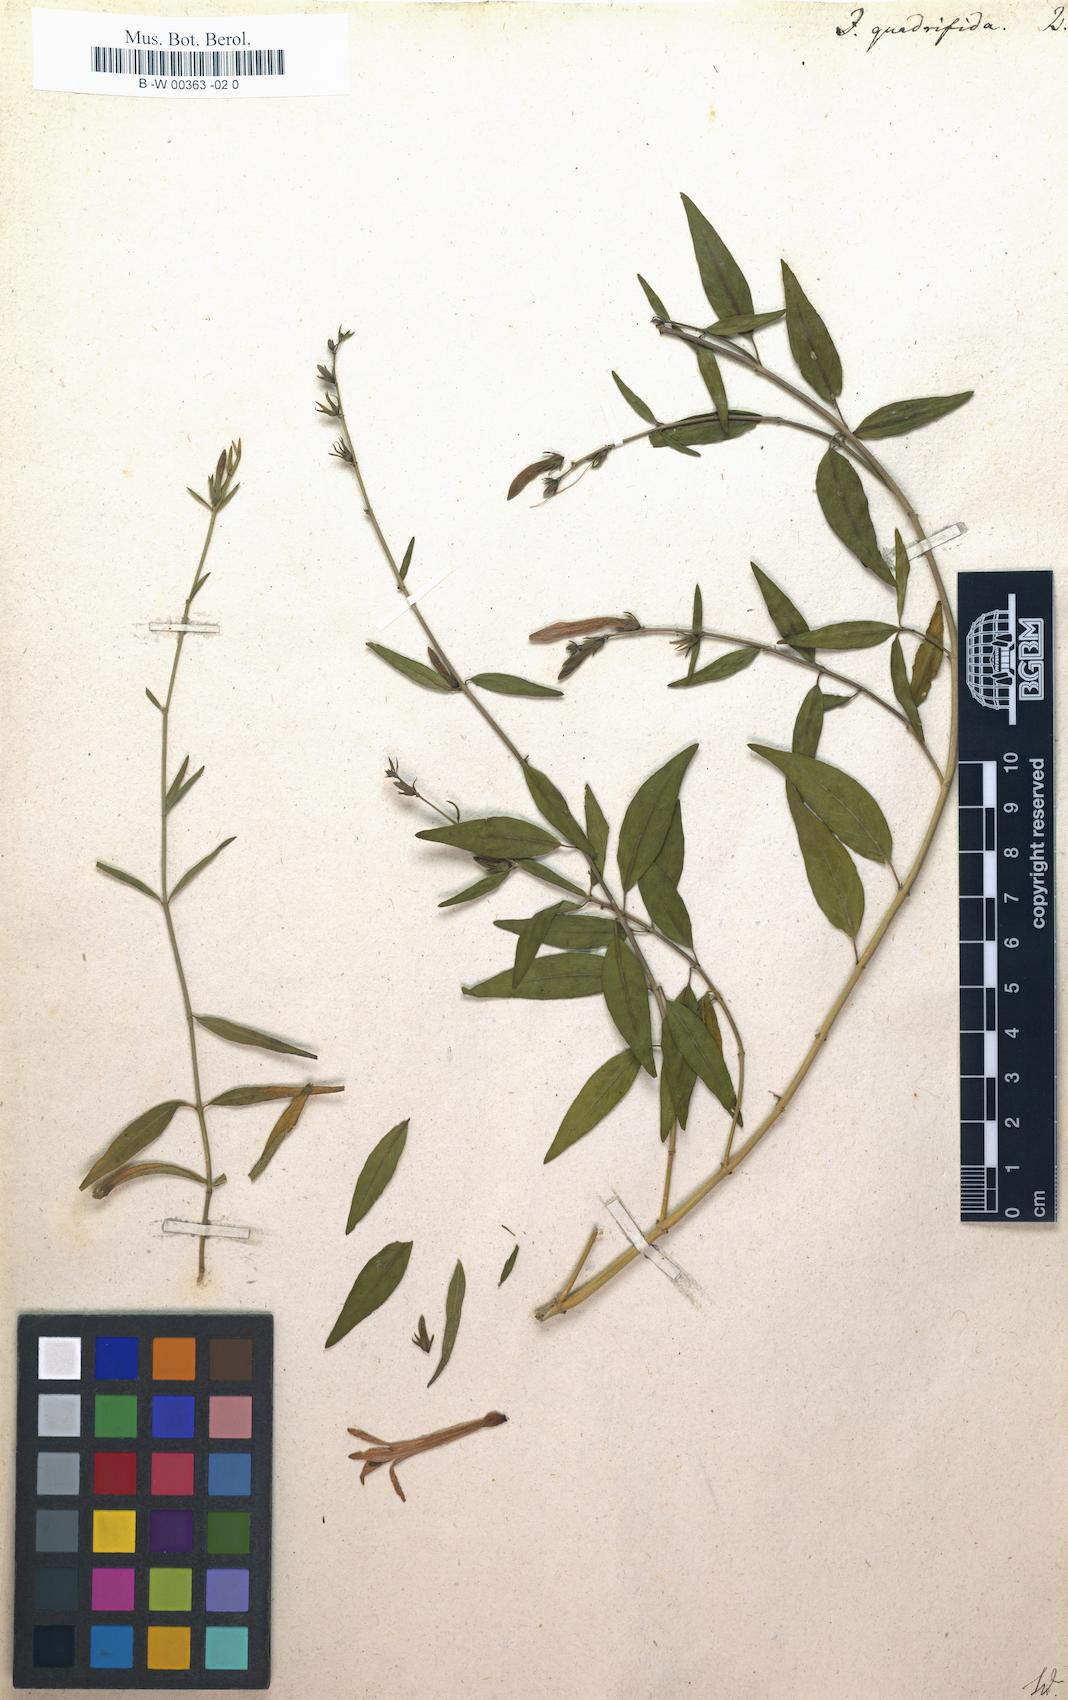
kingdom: Plantae
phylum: Tracheophyta
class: Magnoliopsida
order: Lamiales
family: Acanthaceae
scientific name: Acanthaceae
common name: Acanthaceae
